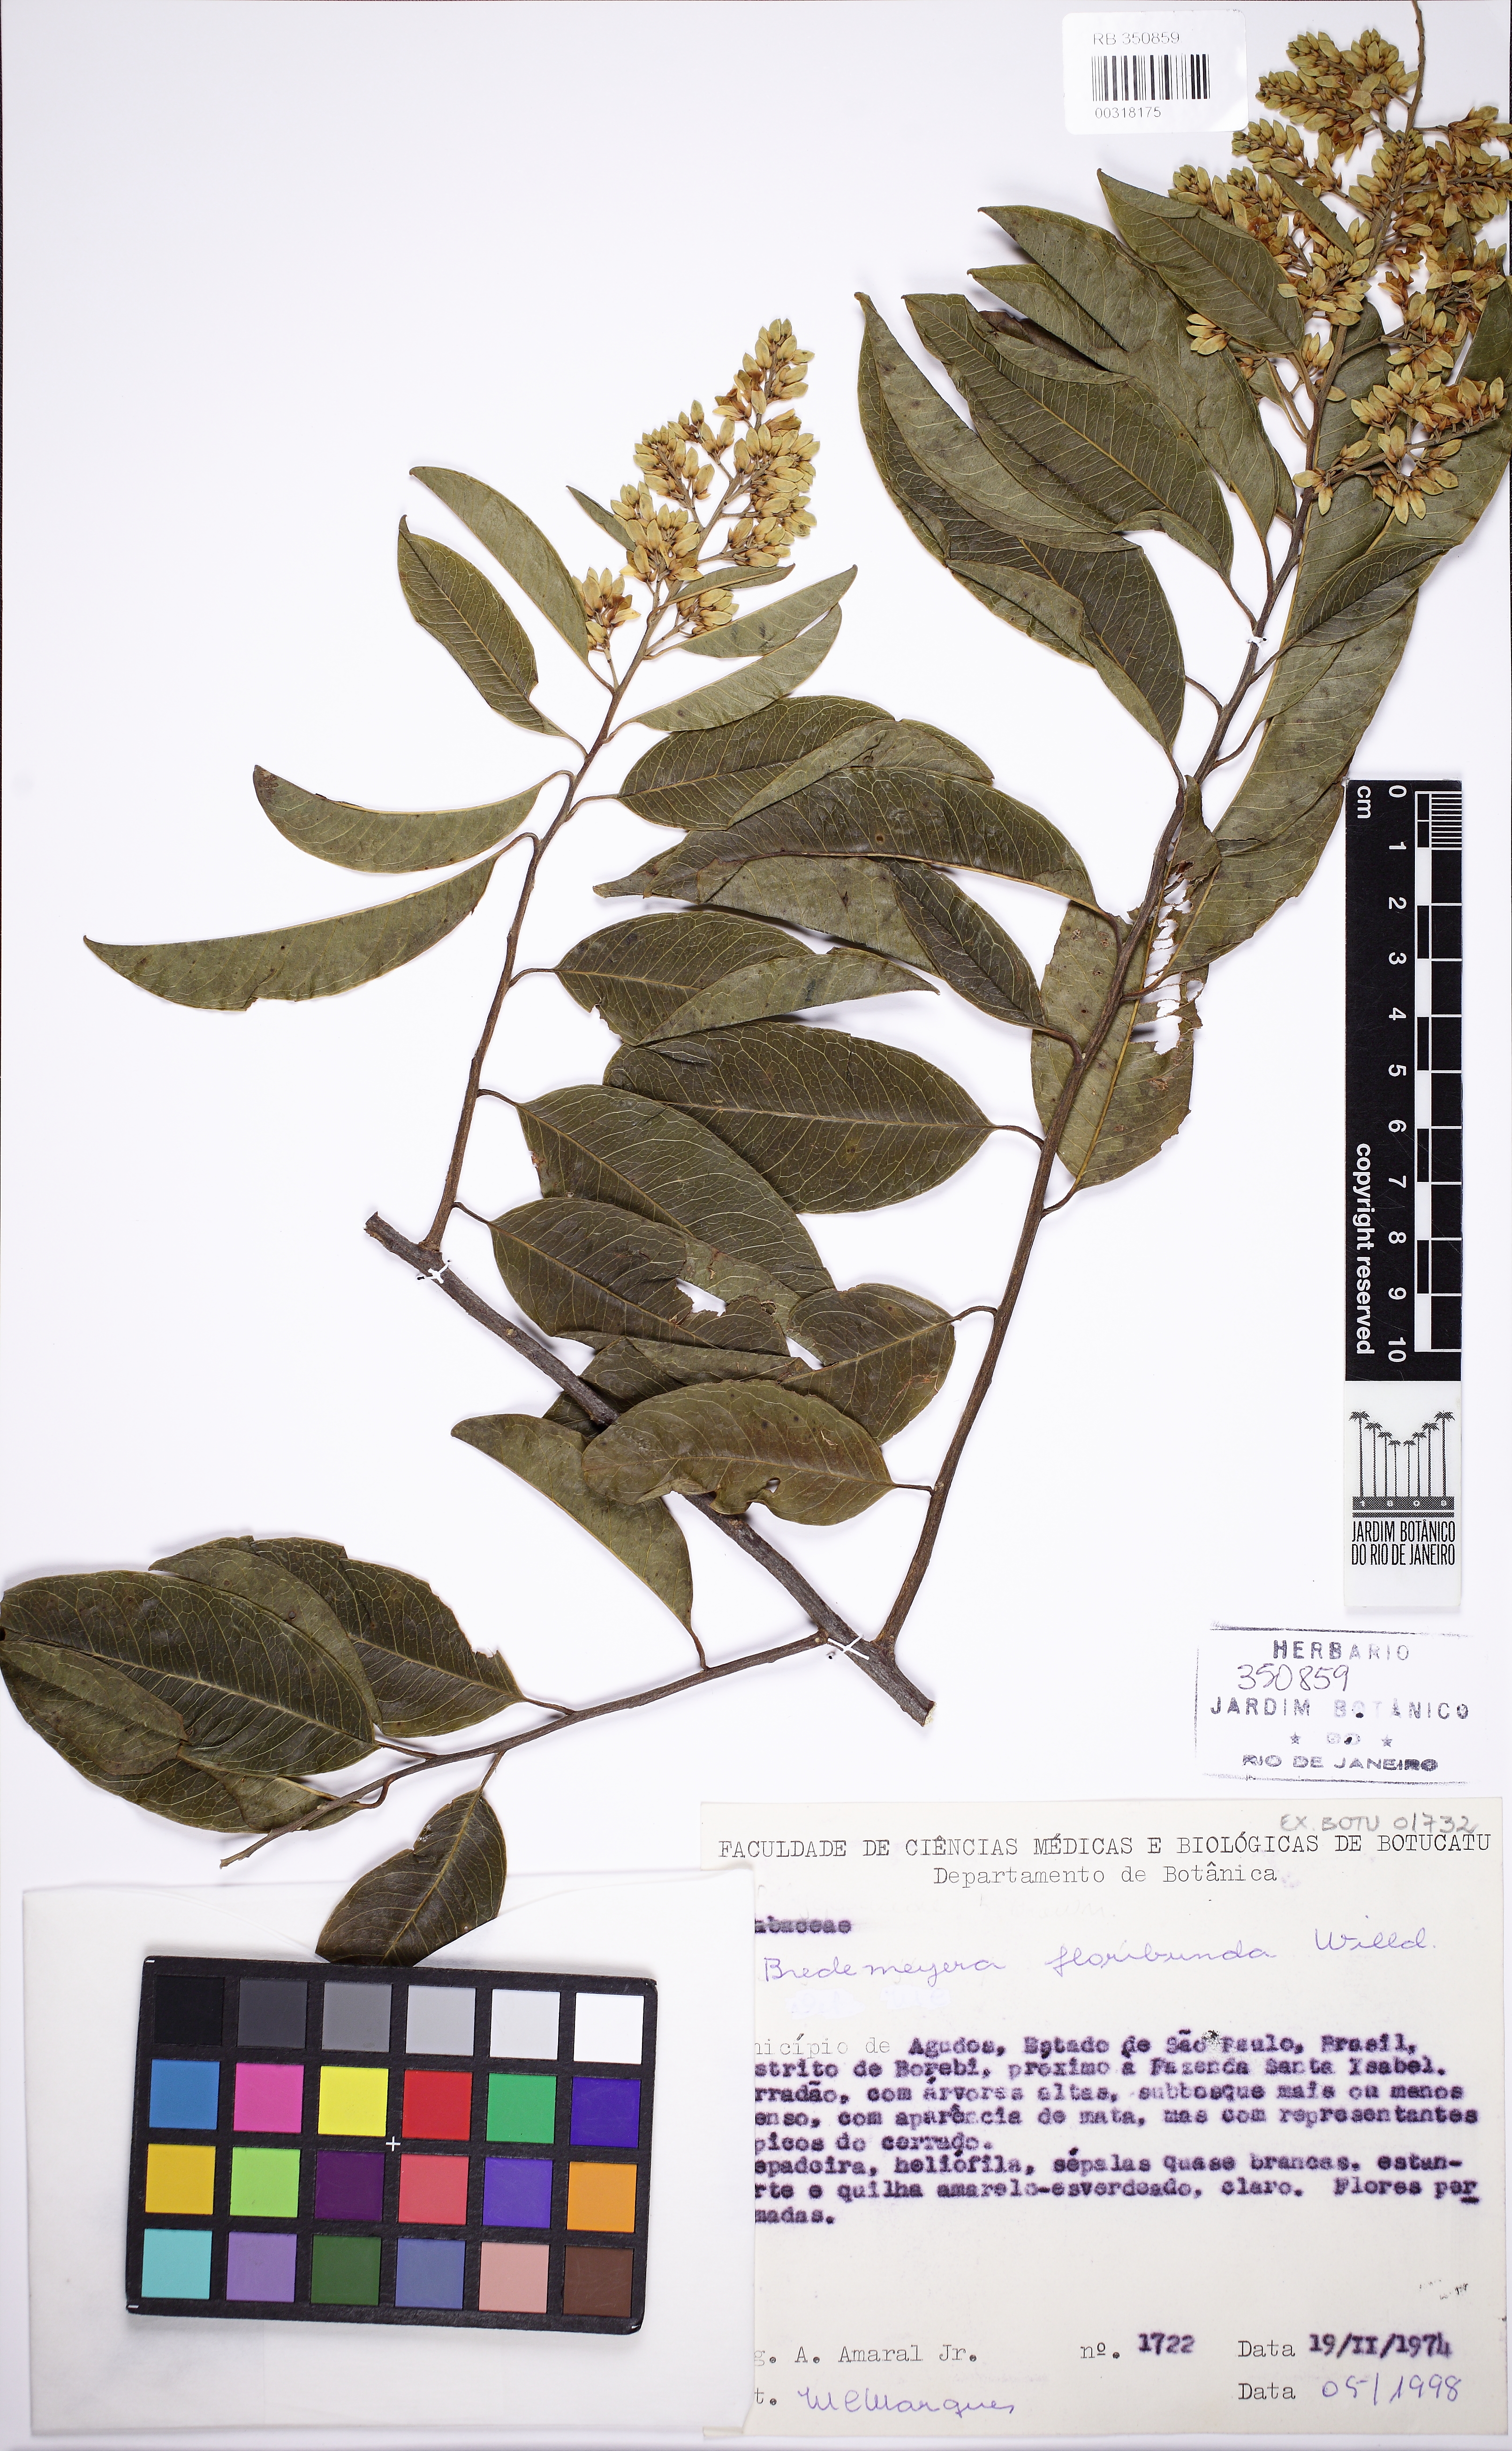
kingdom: Plantae
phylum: Tracheophyta
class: Magnoliopsida
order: Fabales
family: Polygalaceae
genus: Bredemeyera
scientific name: Bredemeyera floribunda
